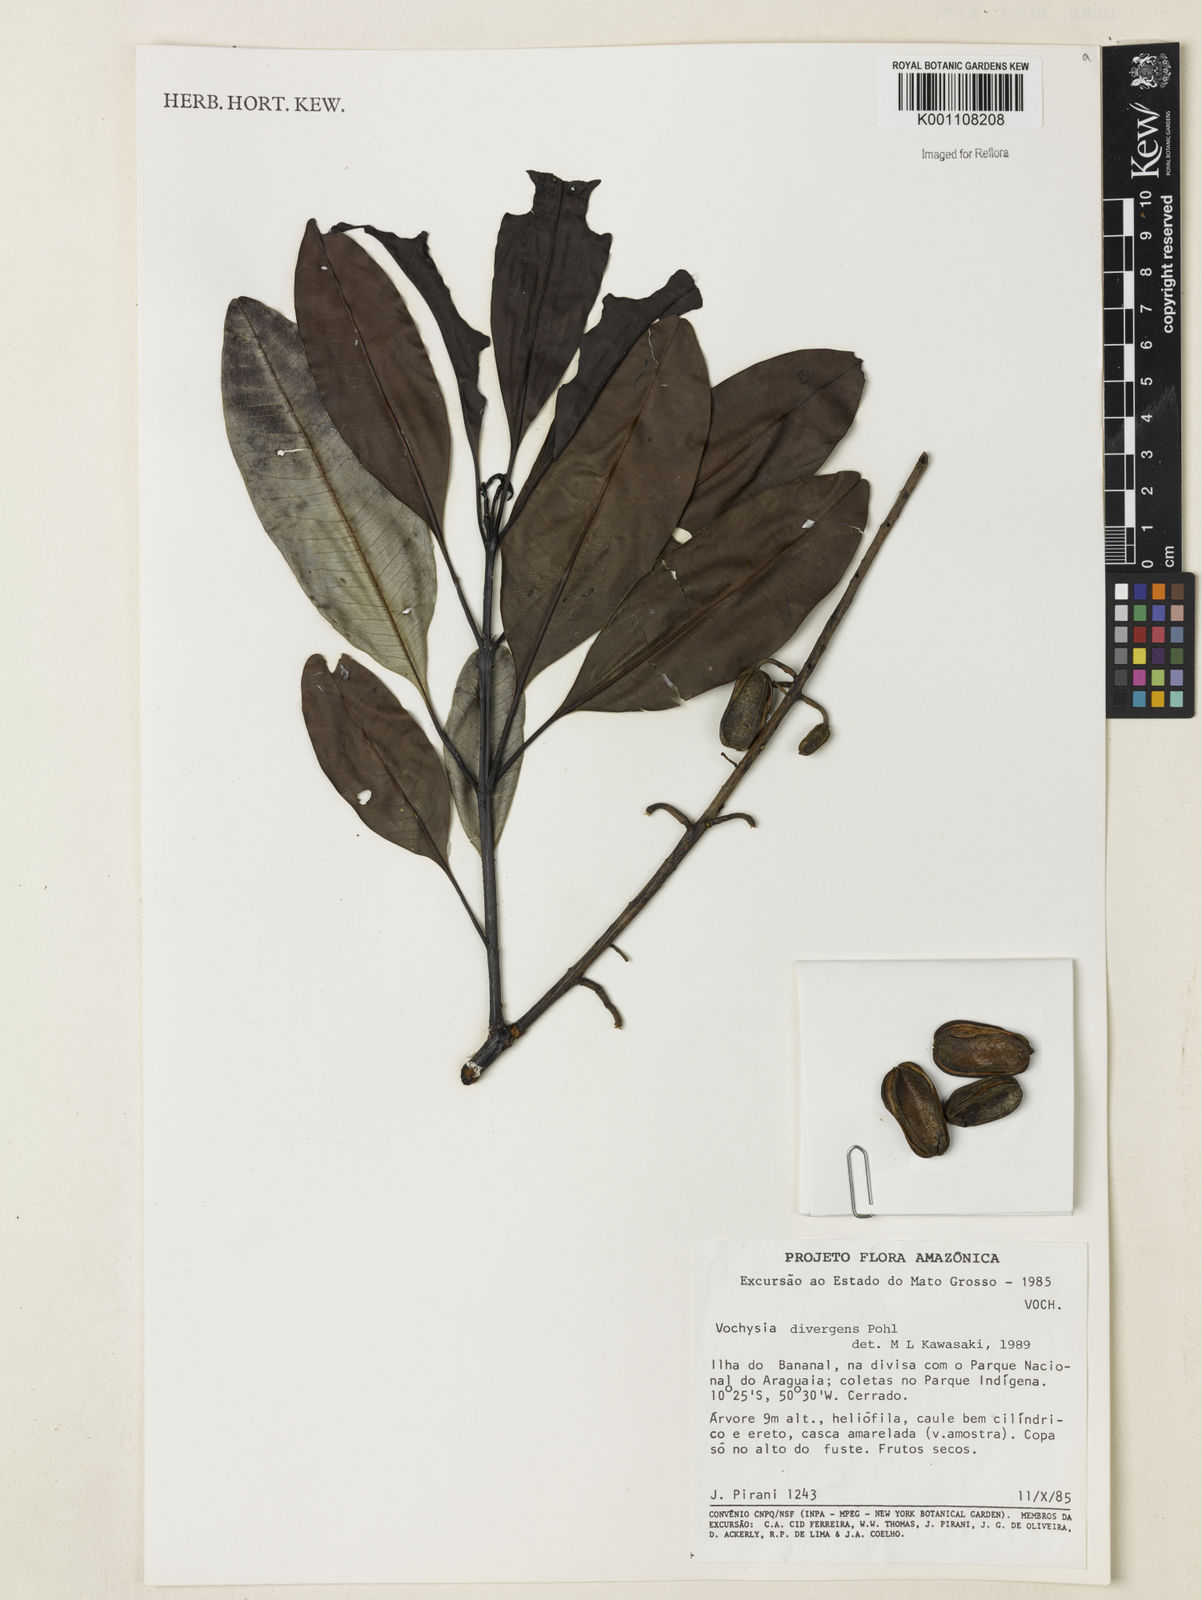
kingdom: Plantae
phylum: Tracheophyta
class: Magnoliopsida
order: Myrtales
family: Vochysiaceae
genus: Vochysia
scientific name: Vochysia divergens
